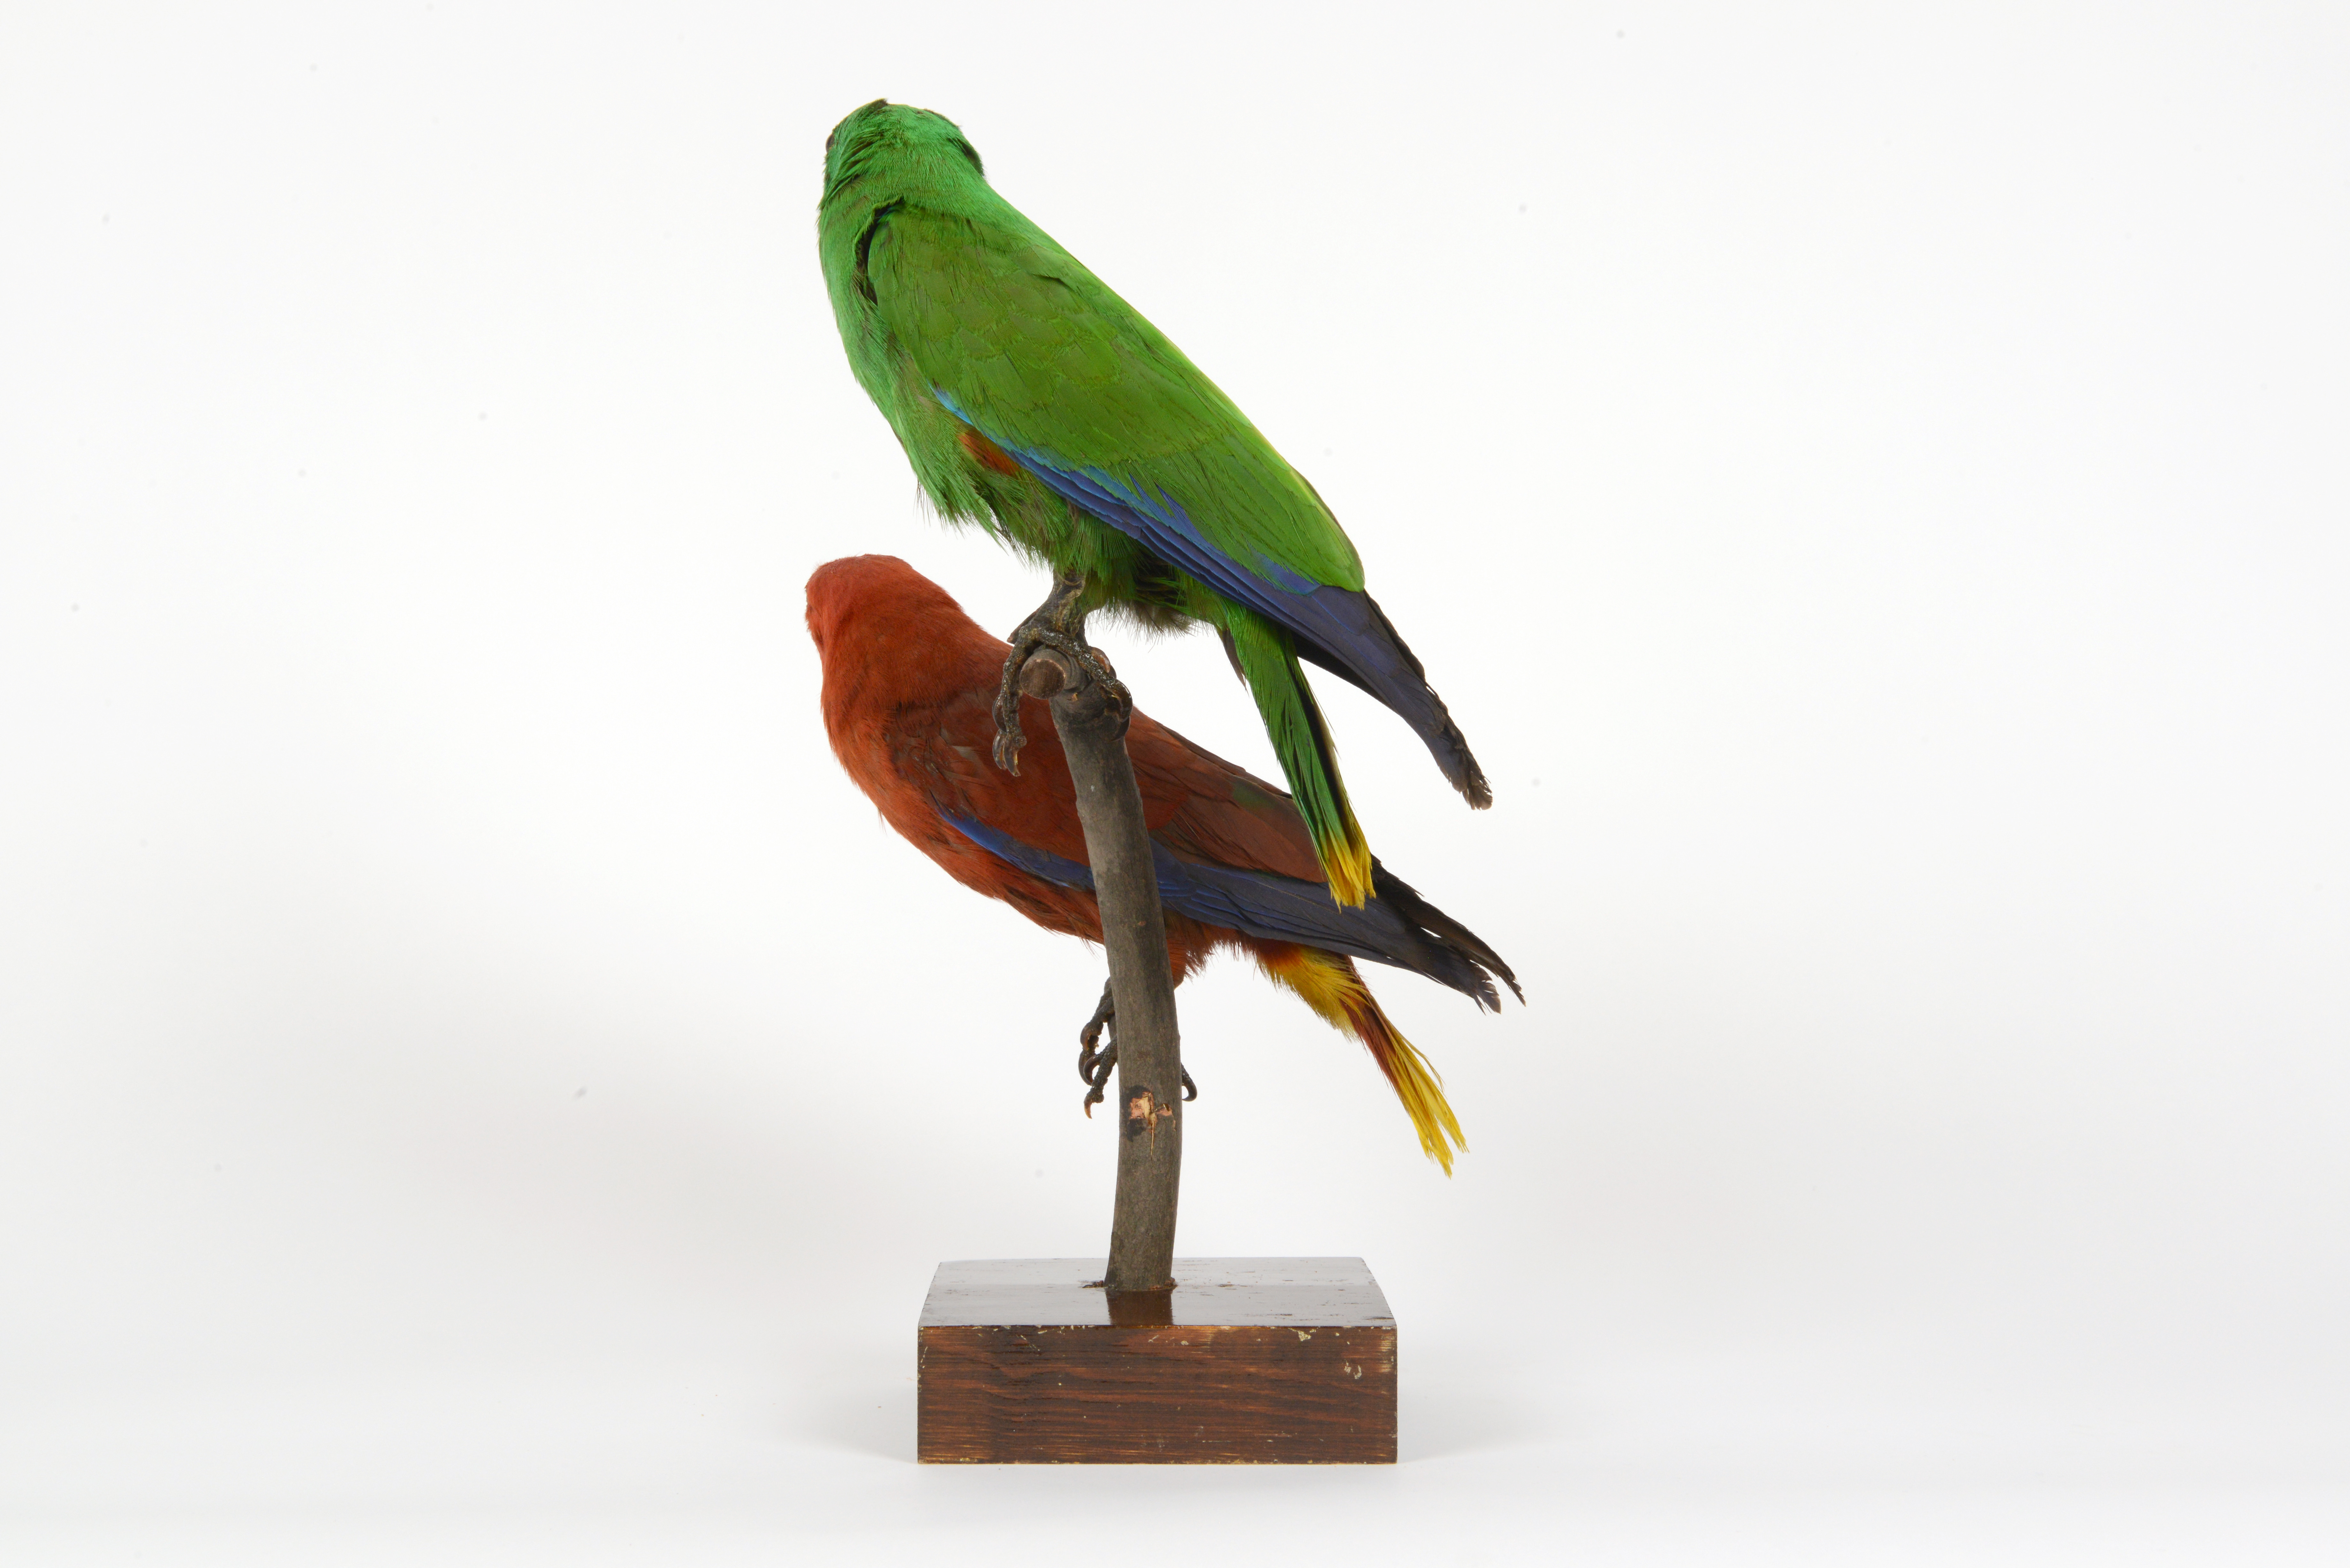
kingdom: Animalia
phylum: Chordata
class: Aves
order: Psittaciformes
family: Psittacidae
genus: Eclectus
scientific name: Eclectus roratus
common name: Eclectus parrot
